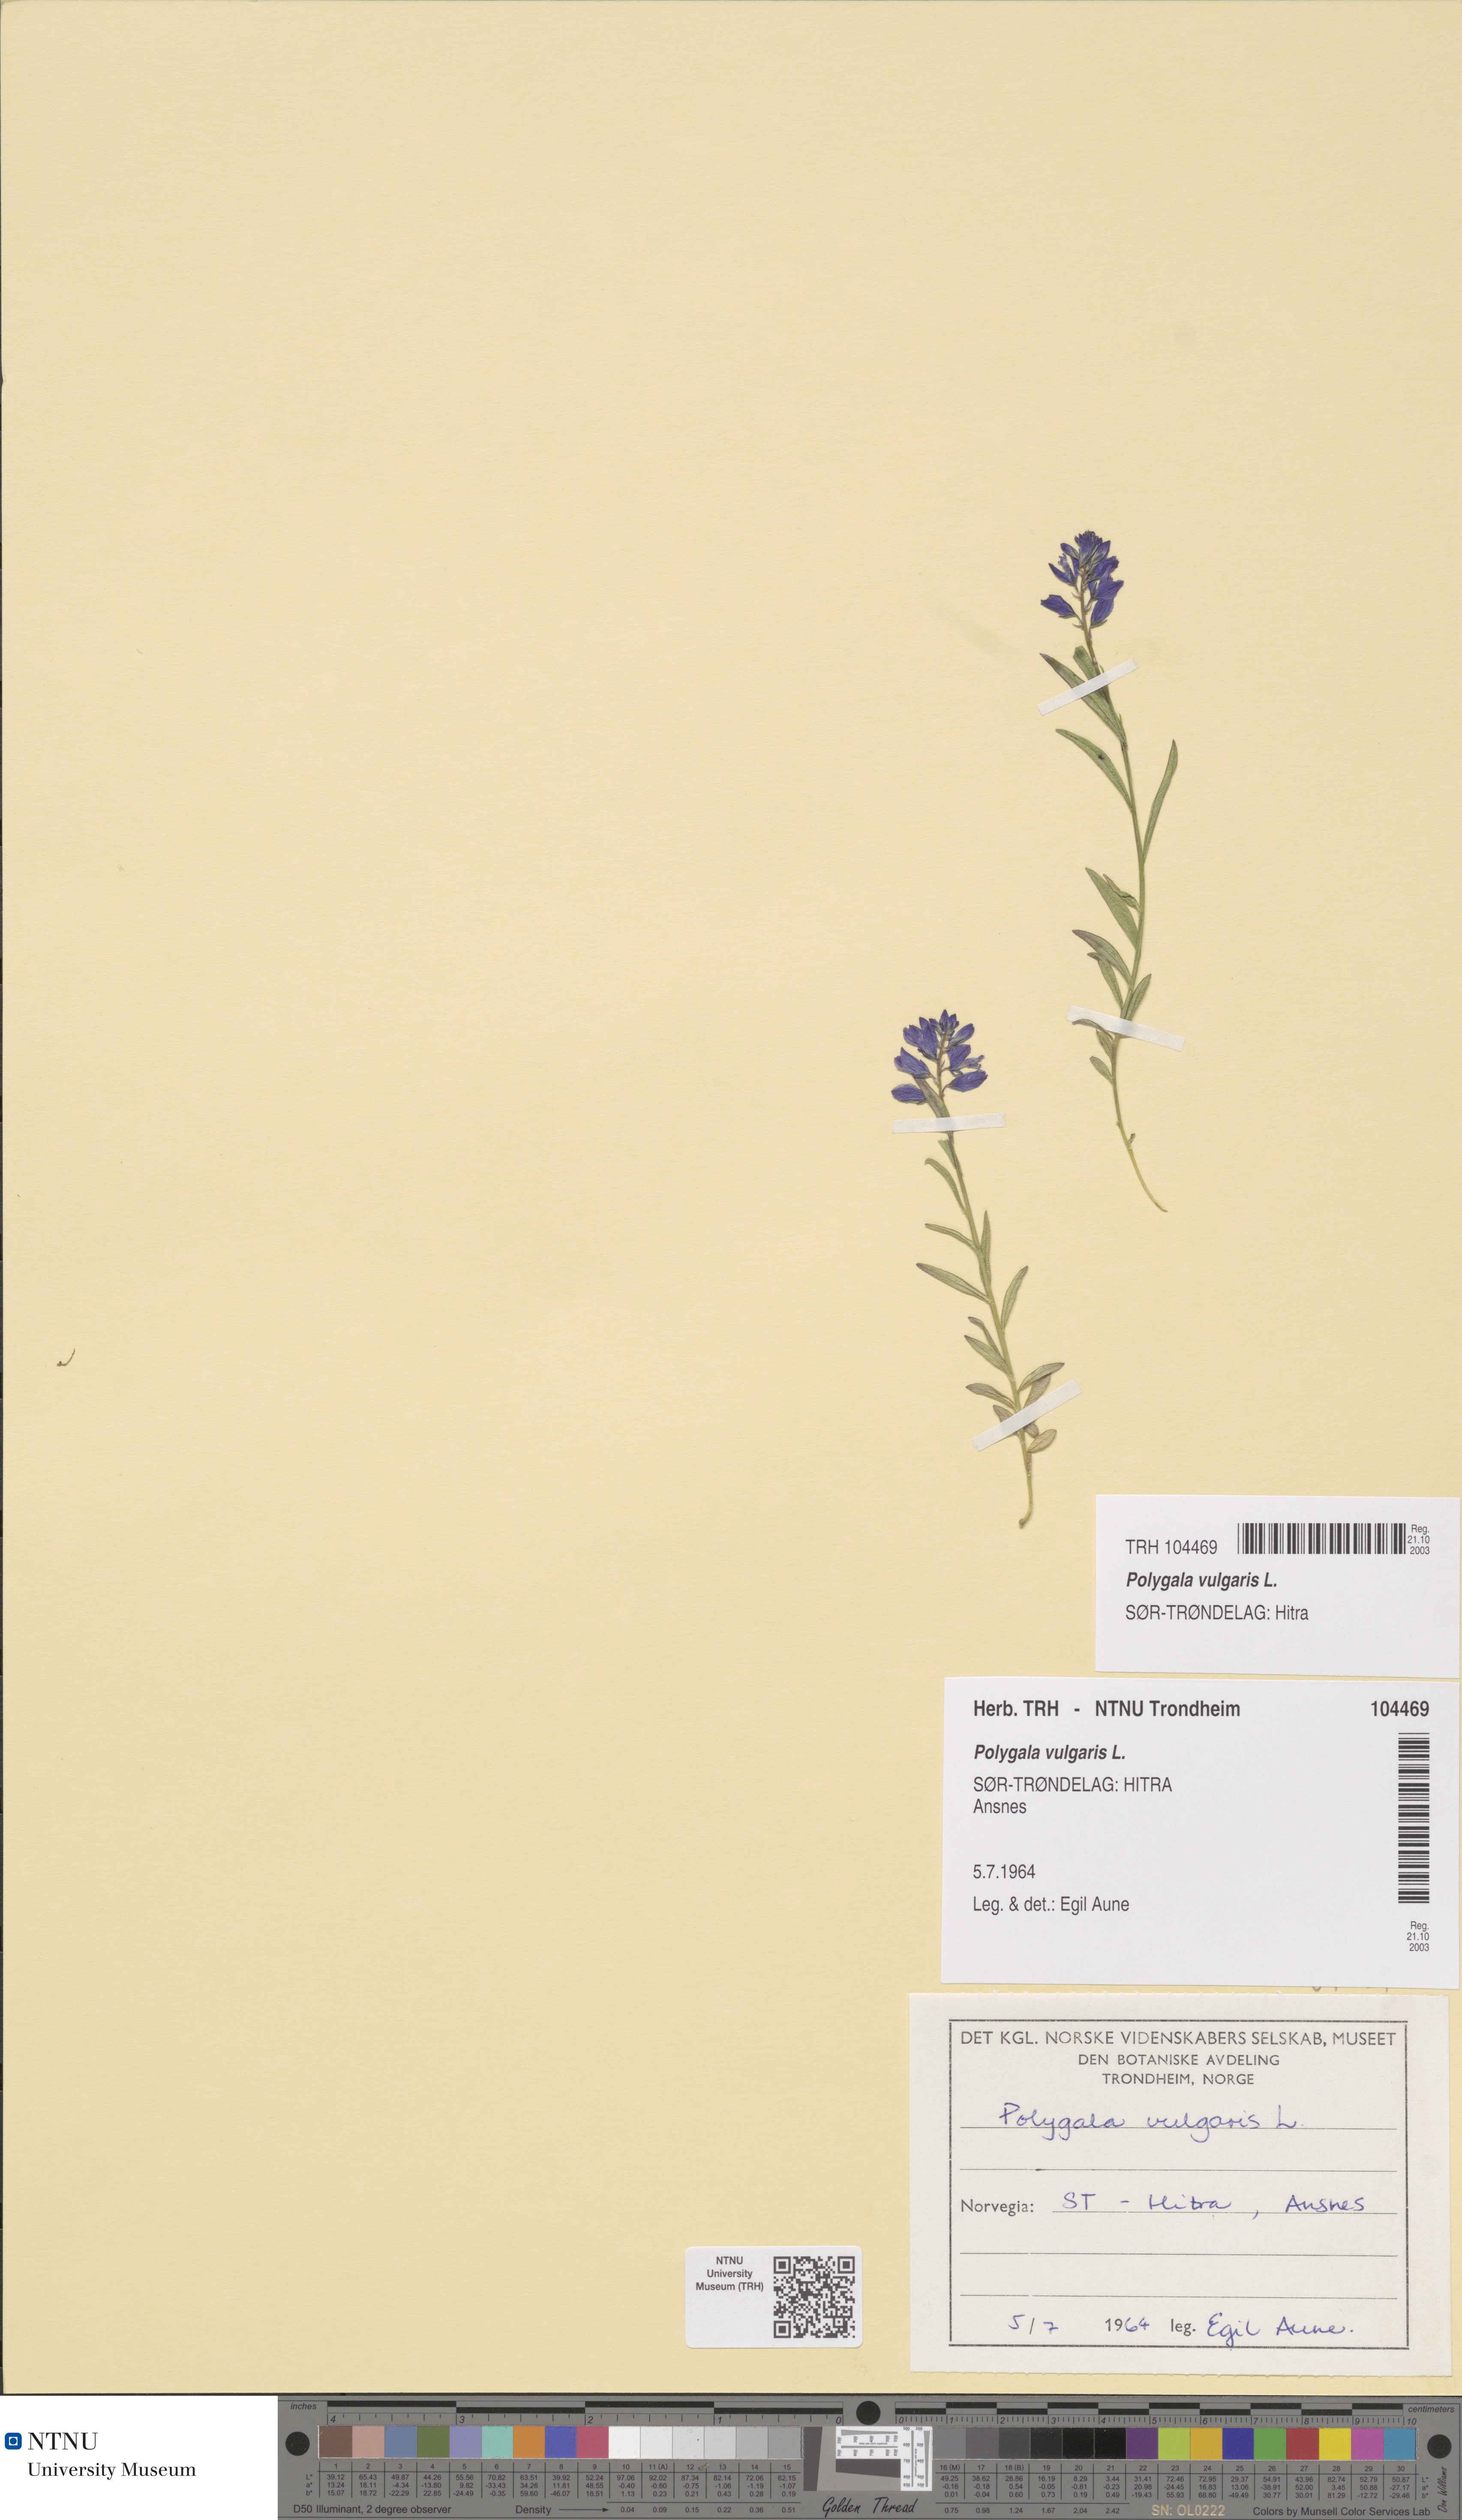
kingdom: Plantae
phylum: Tracheophyta
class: Magnoliopsida
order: Fabales
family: Polygalaceae
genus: Polygala
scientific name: Polygala vulgaris
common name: Common milkwort
